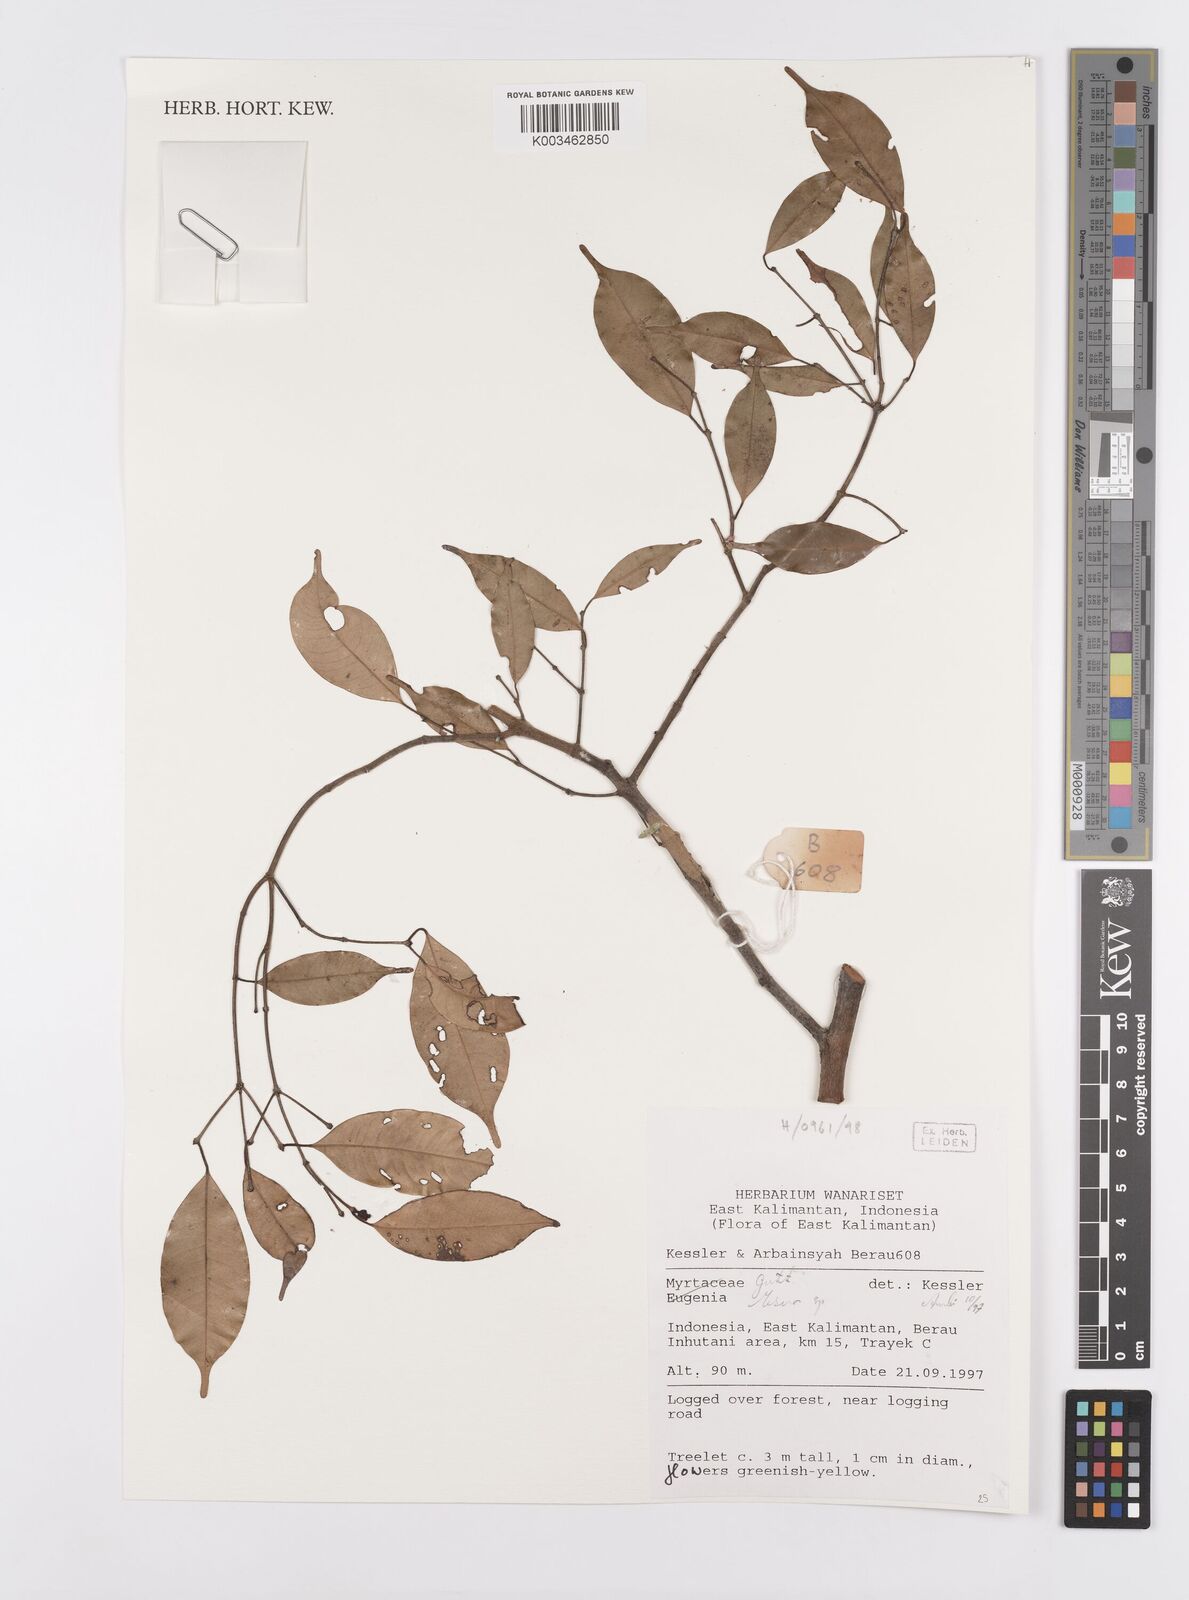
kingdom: Plantae
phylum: Tracheophyta
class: Magnoliopsida
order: Malpighiales
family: Calophyllaceae
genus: Mesua
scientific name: Mesua
